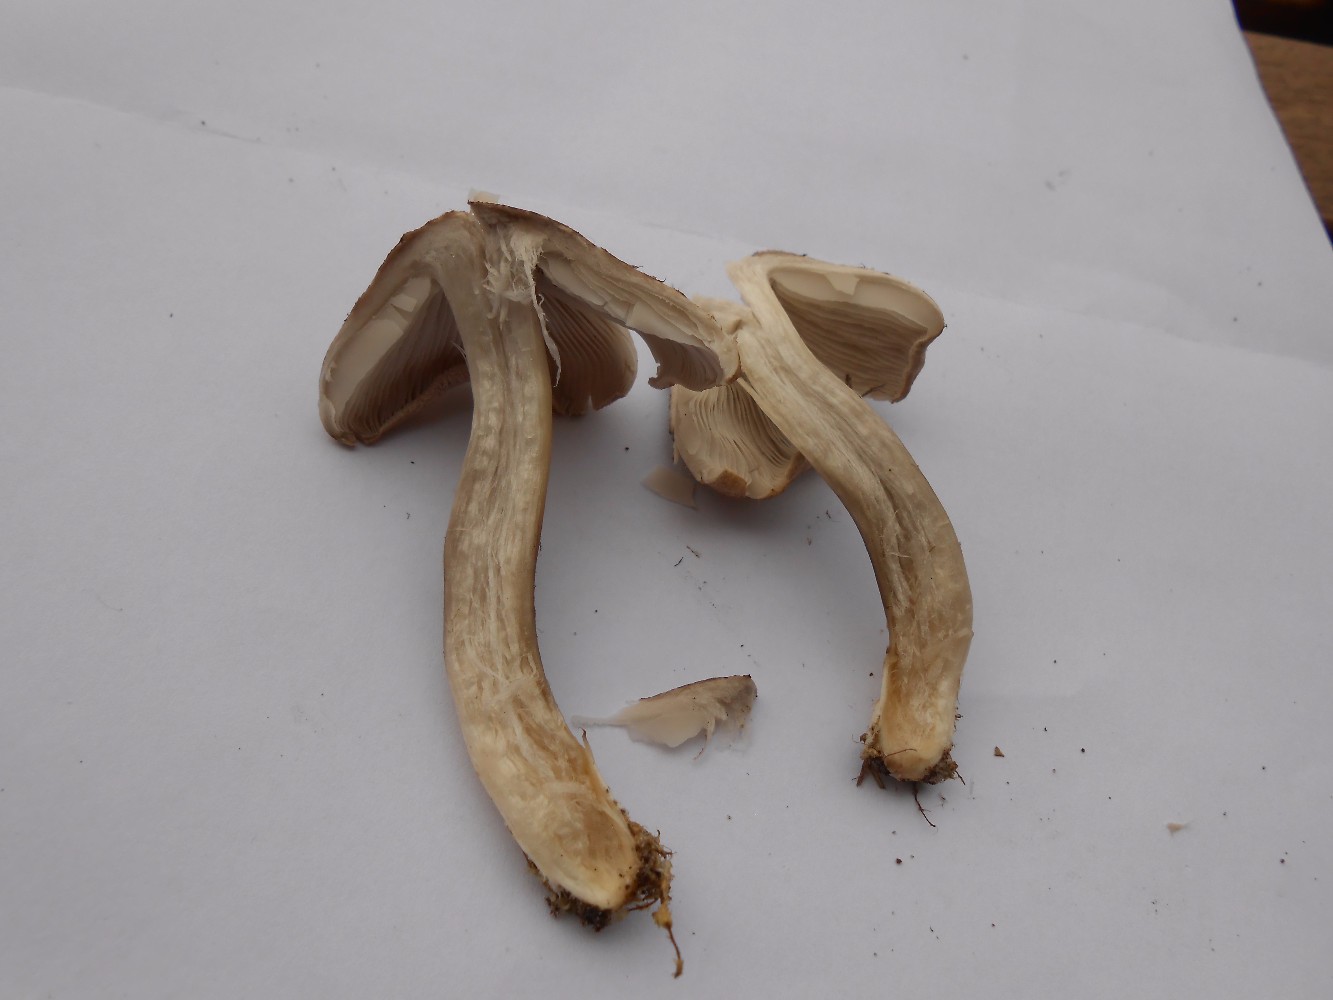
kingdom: Fungi
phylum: Basidiomycota
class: Agaricomycetes
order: Agaricales
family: Inocybaceae
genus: Inocybe
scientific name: Inocybe
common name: trævlhat
